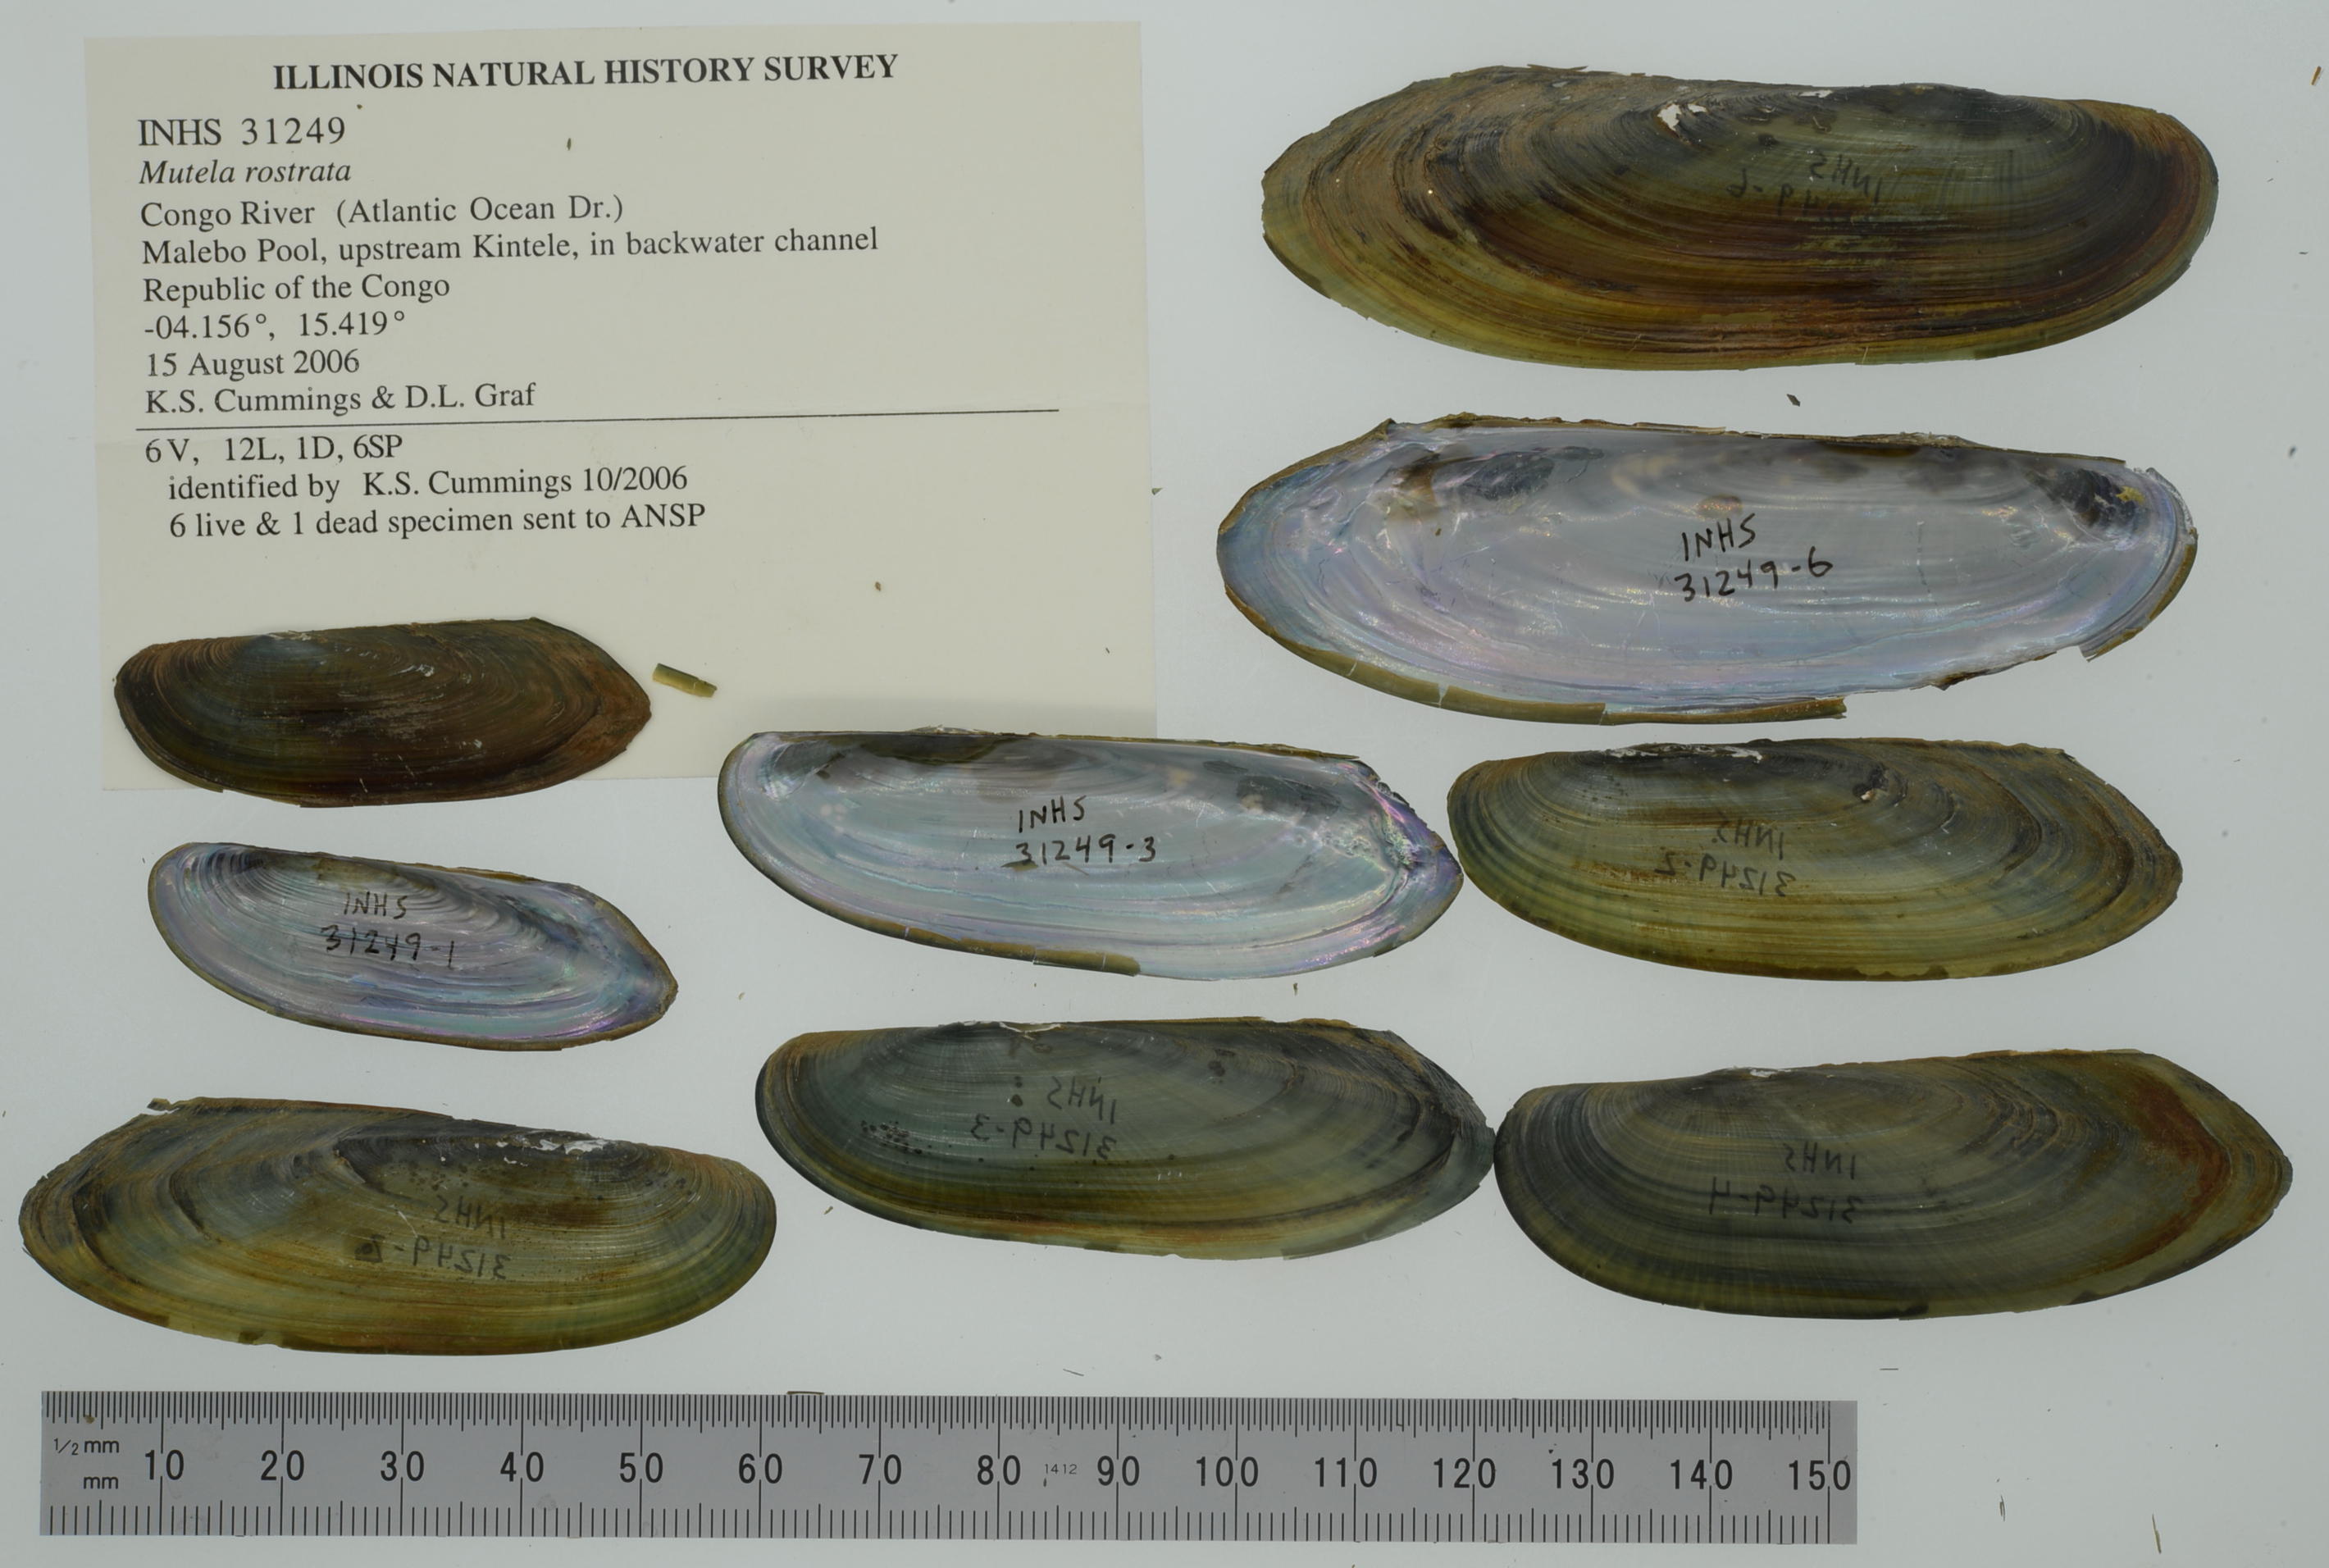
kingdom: Animalia
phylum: Mollusca
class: Bivalvia
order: Unionida
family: Iridinidae
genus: Mutela
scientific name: Mutela rostrata
